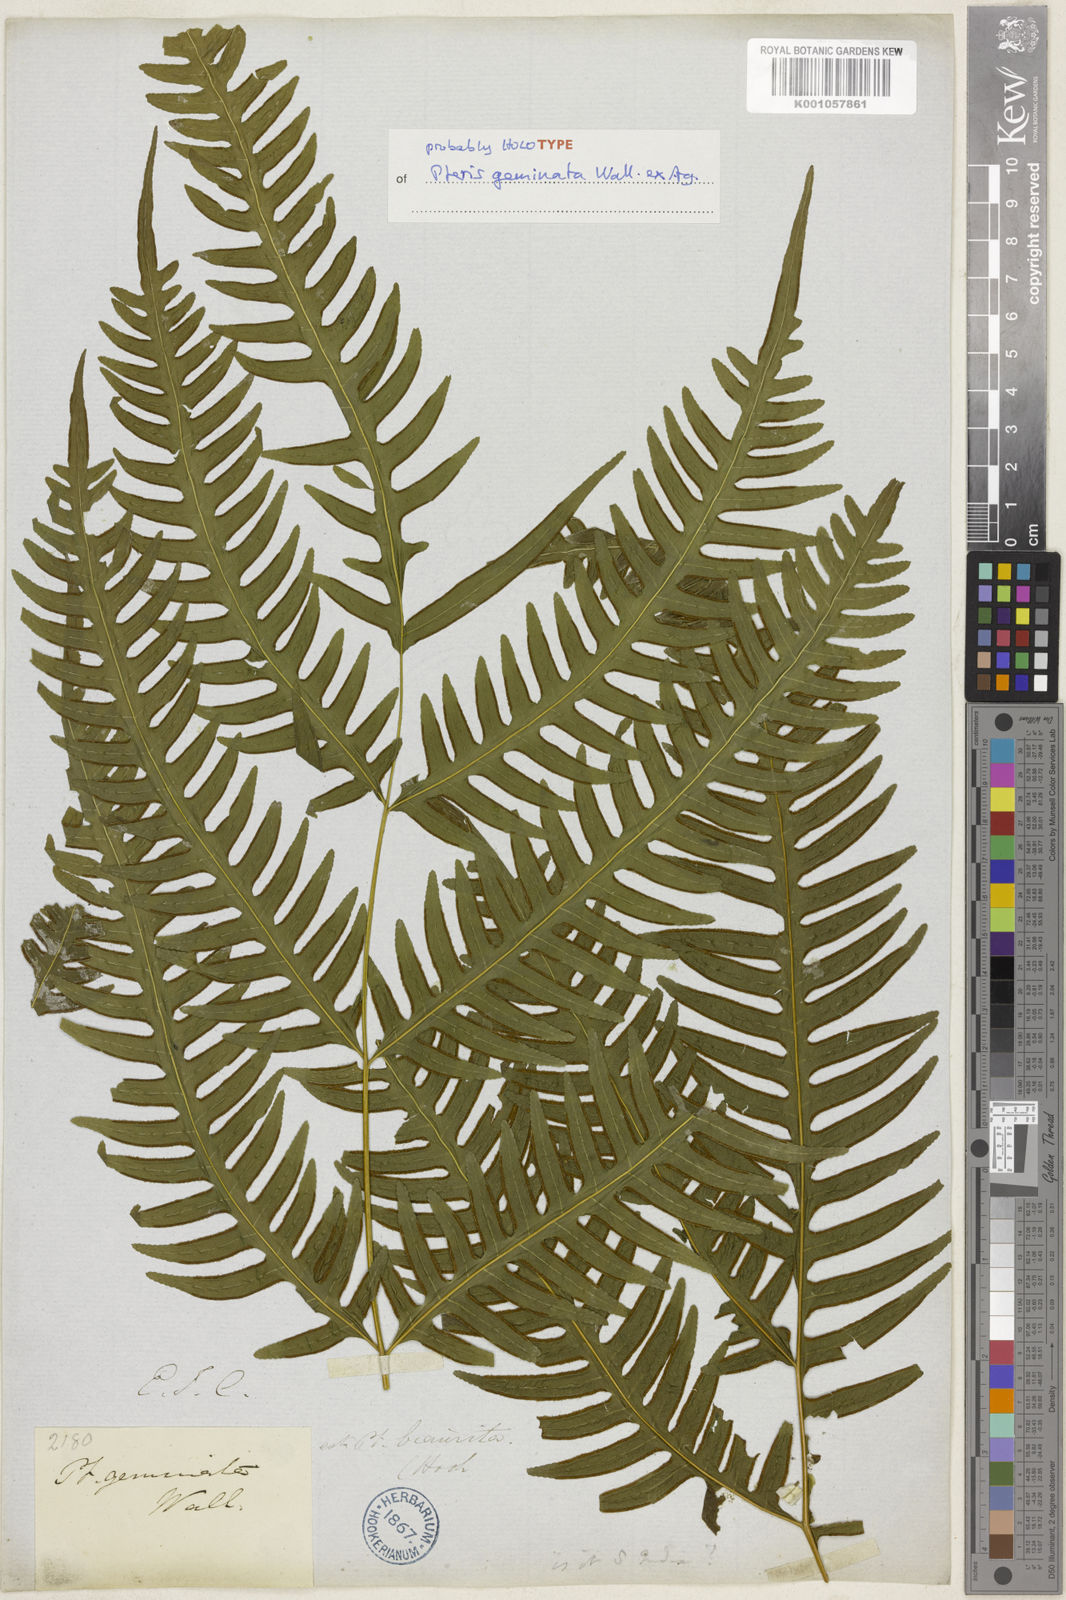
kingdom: Plantae
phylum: Tracheophyta
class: Polypodiopsida
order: Polypodiales
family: Pteridaceae
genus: Pteris
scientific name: Pteris geminata
